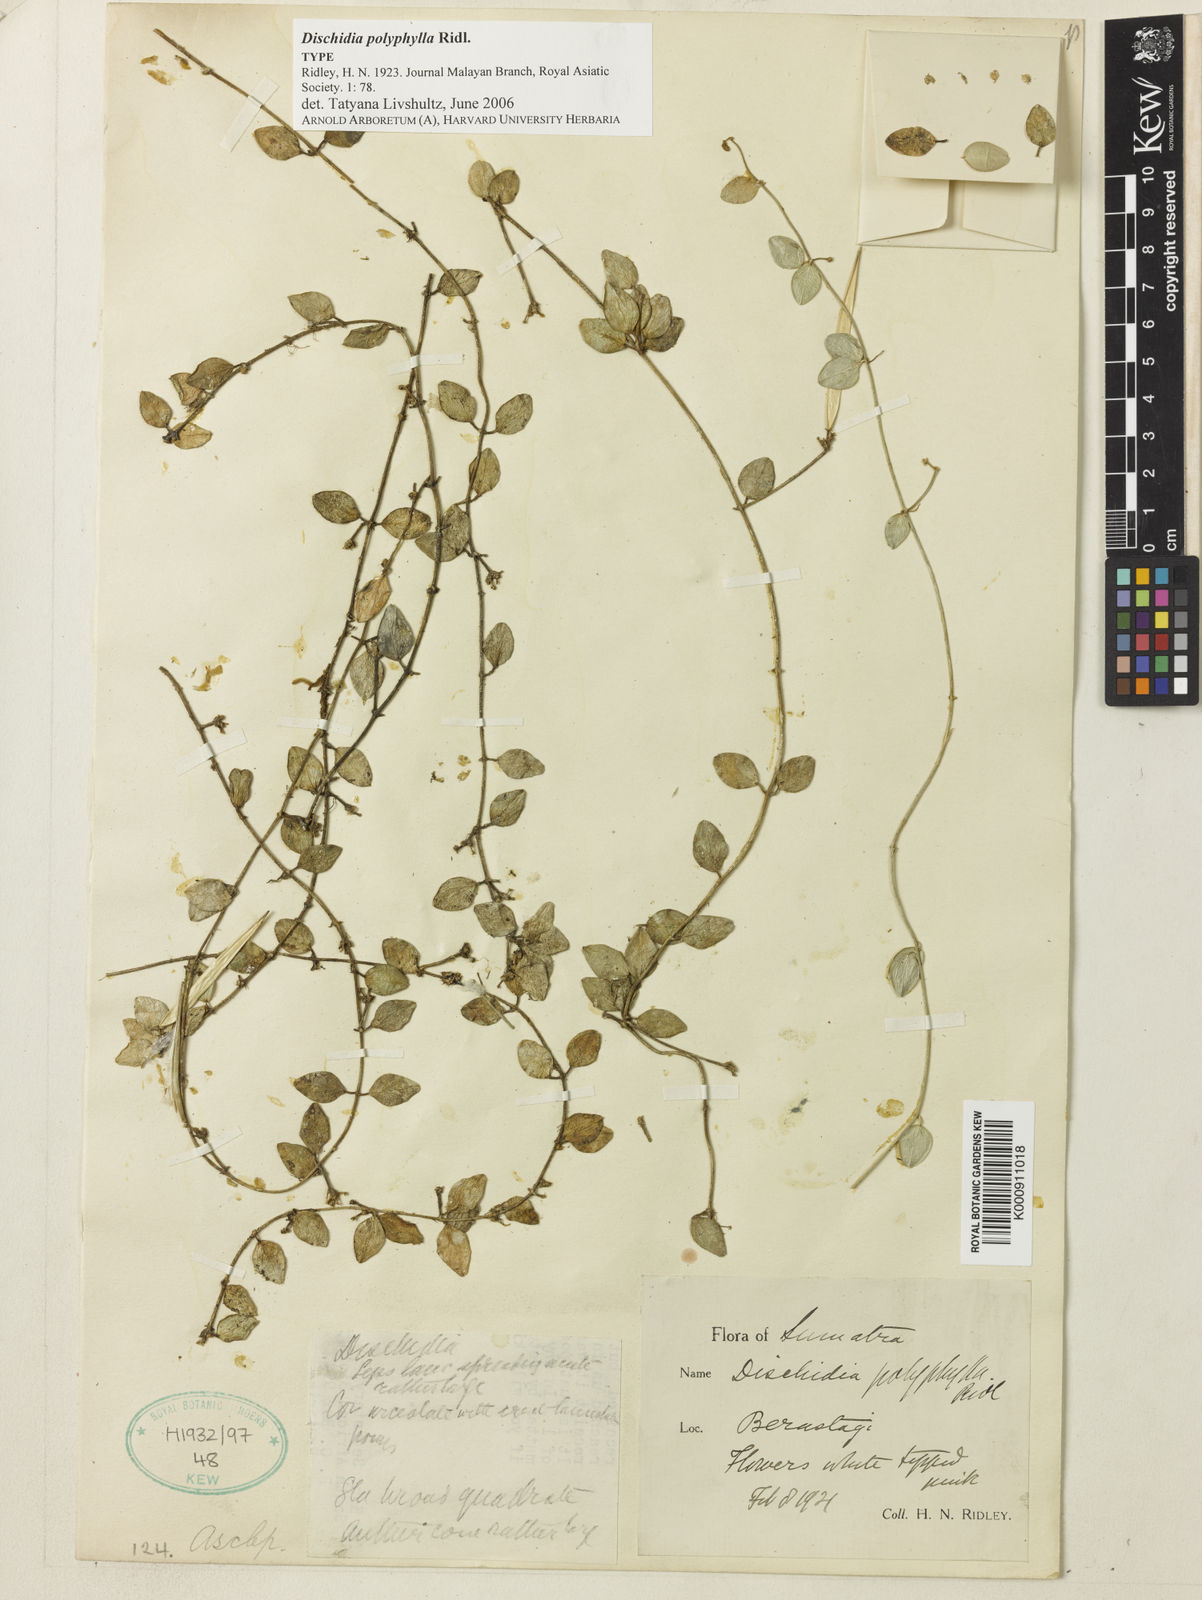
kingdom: Plantae
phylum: Tracheophyta
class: Magnoliopsida
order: Gentianales
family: Apocynaceae
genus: Dischidia
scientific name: Dischidia polyphylla
